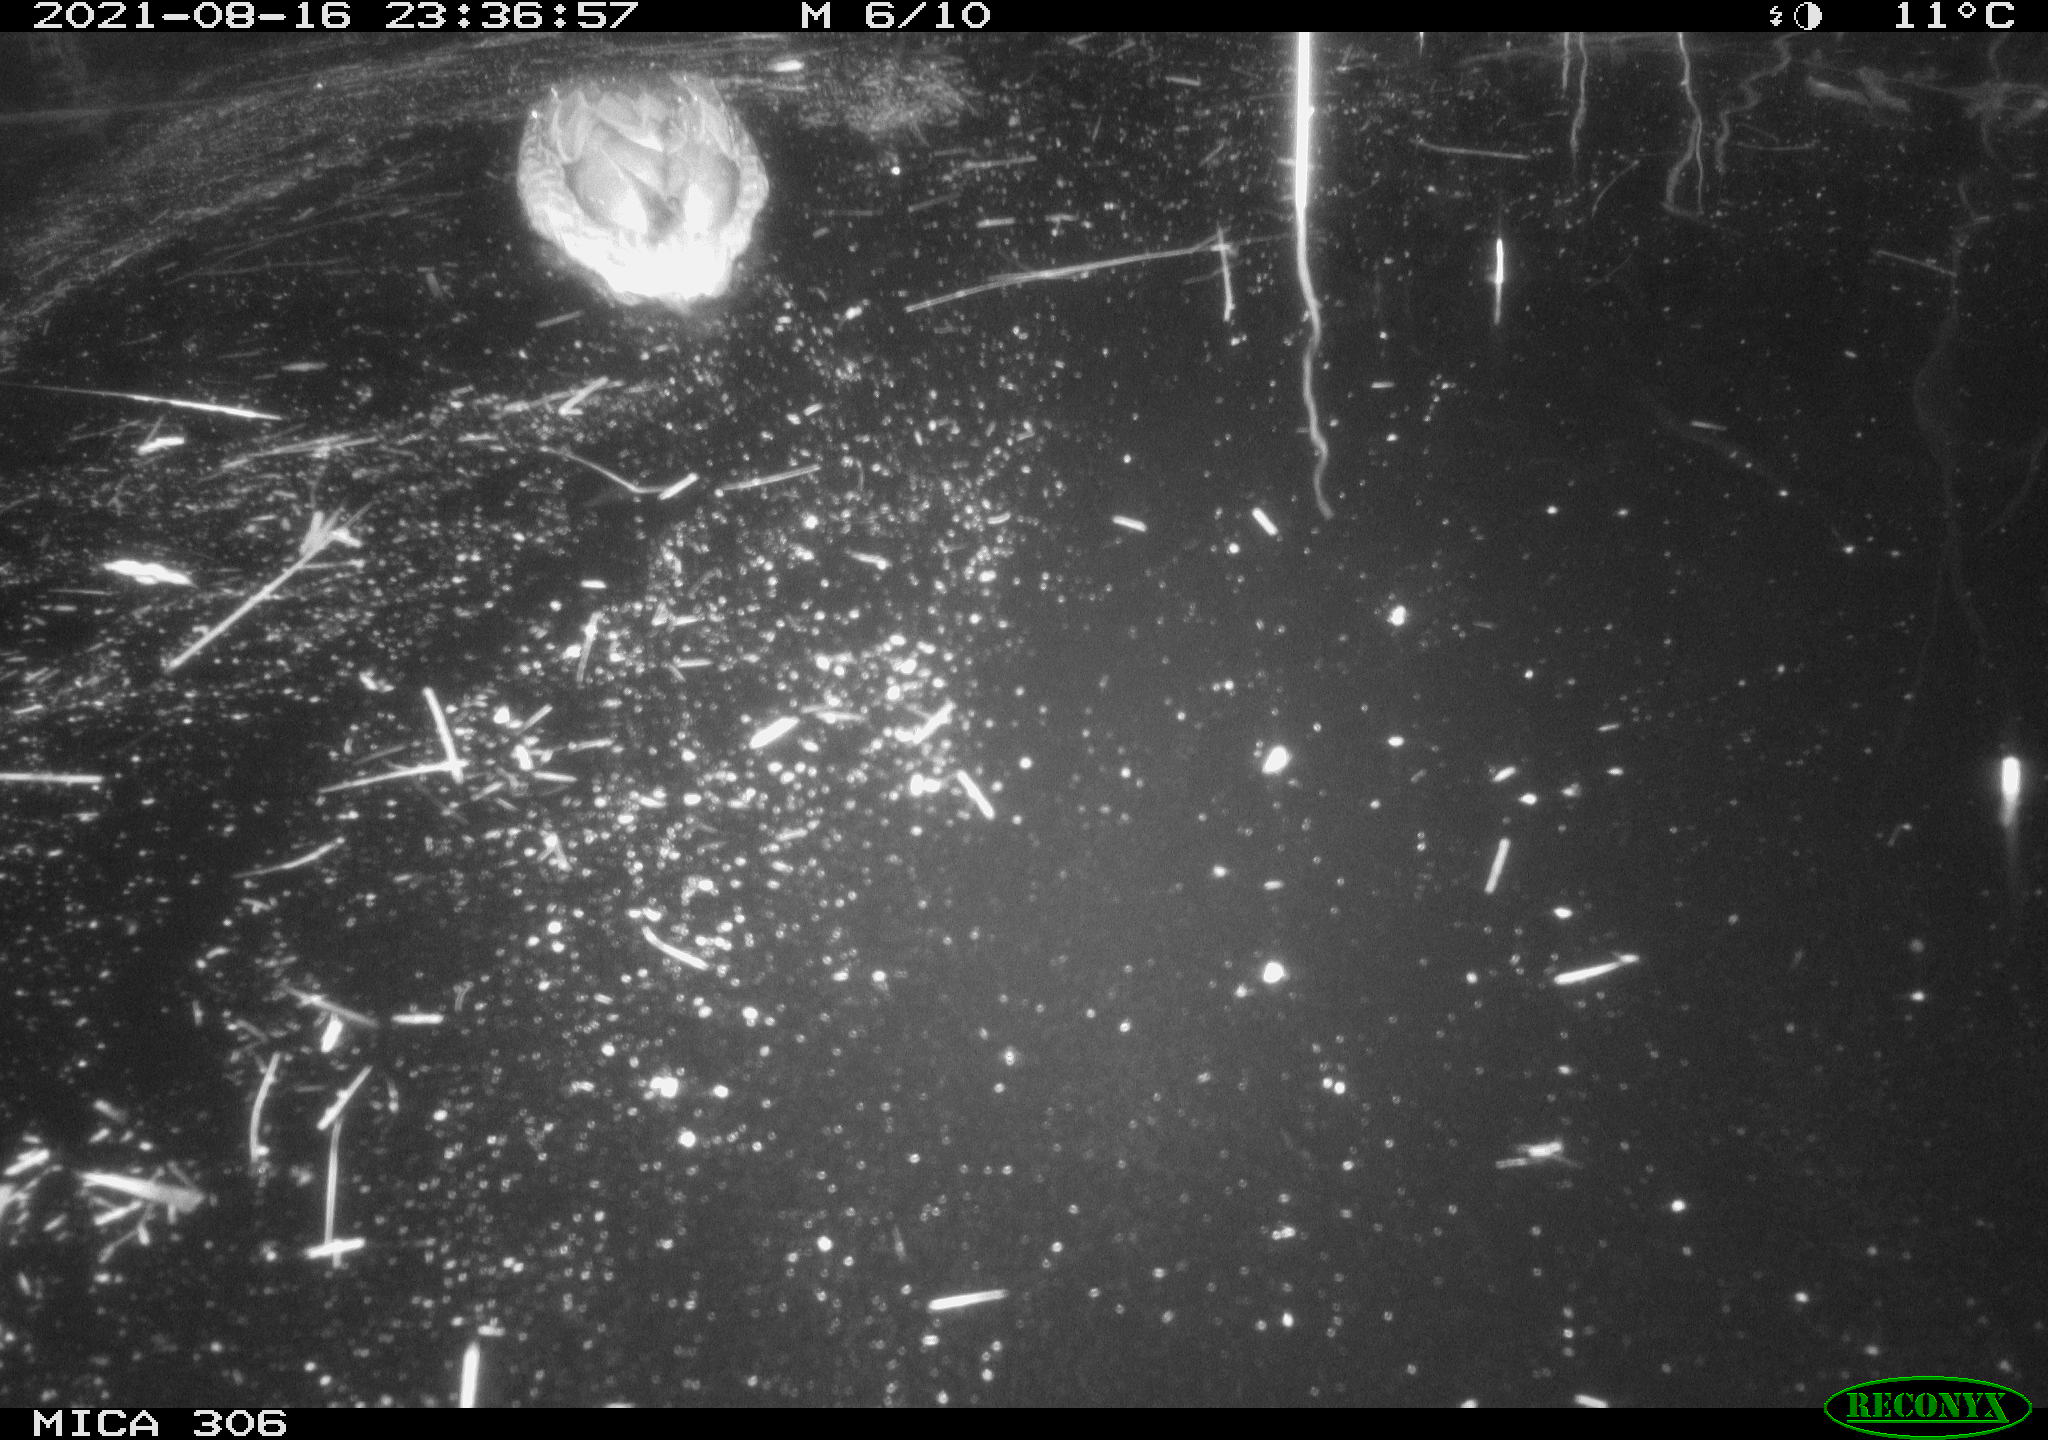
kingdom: Animalia
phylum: Chordata
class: Aves
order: Anseriformes
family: Anatidae
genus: Anas
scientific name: Anas platyrhynchos
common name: Mallard
